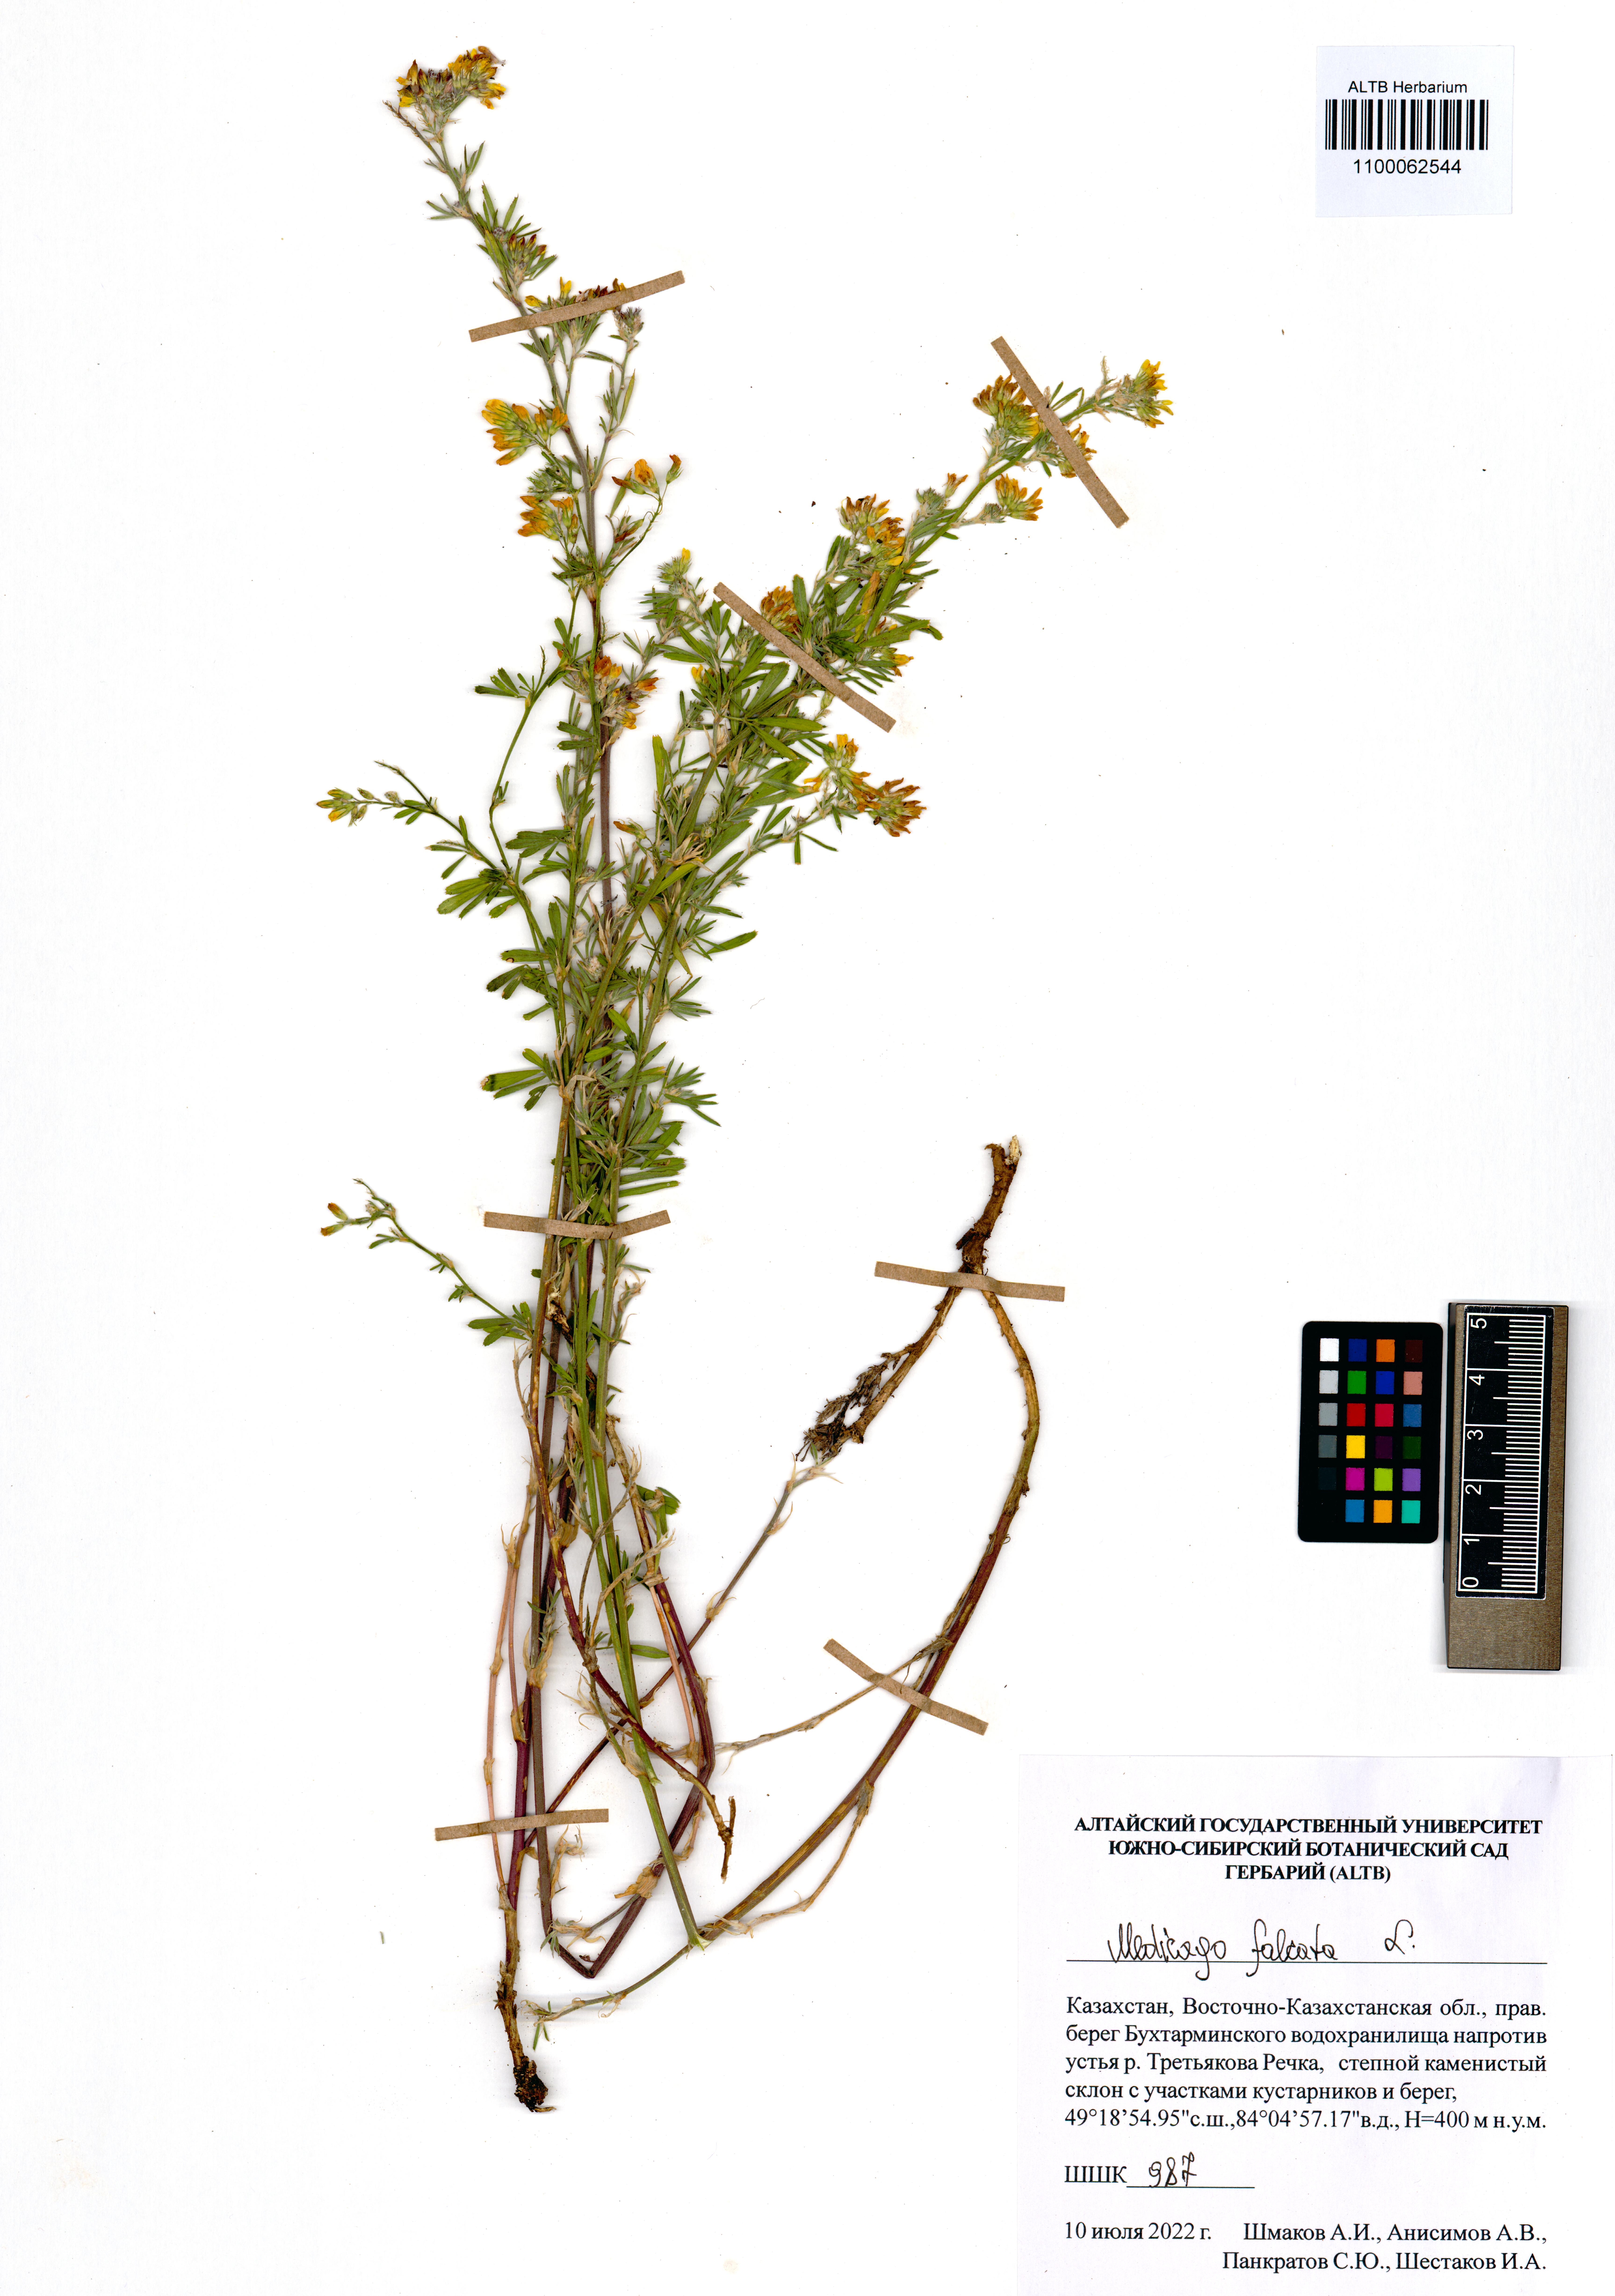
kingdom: Plantae
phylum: Tracheophyta
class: Magnoliopsida
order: Fabales
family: Fabaceae
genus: Medicago
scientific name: Medicago falcata
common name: Sickle medick
